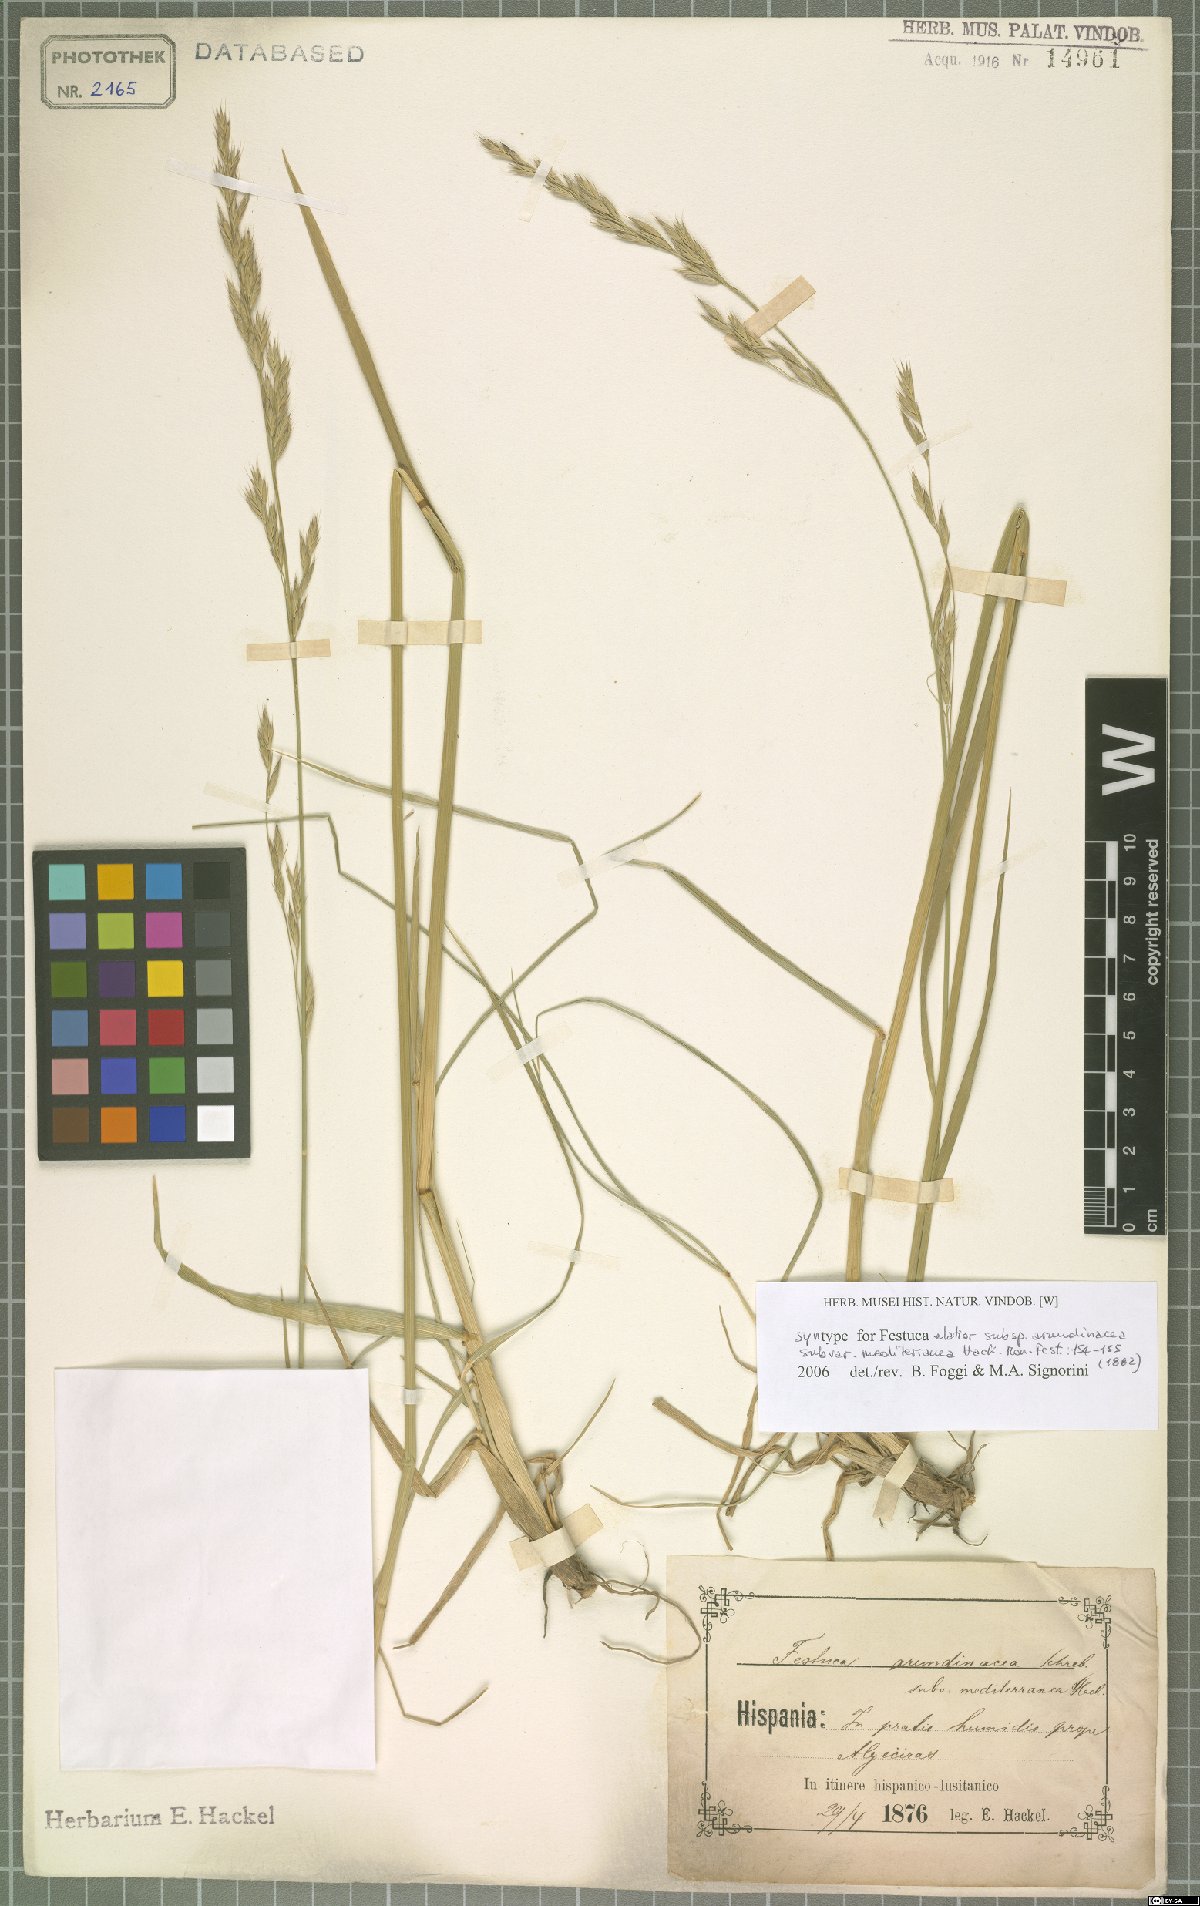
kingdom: Plantae
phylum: Tracheophyta
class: Liliopsida
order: Poales
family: Poaceae
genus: Lolium
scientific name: Lolium mediterraneum
